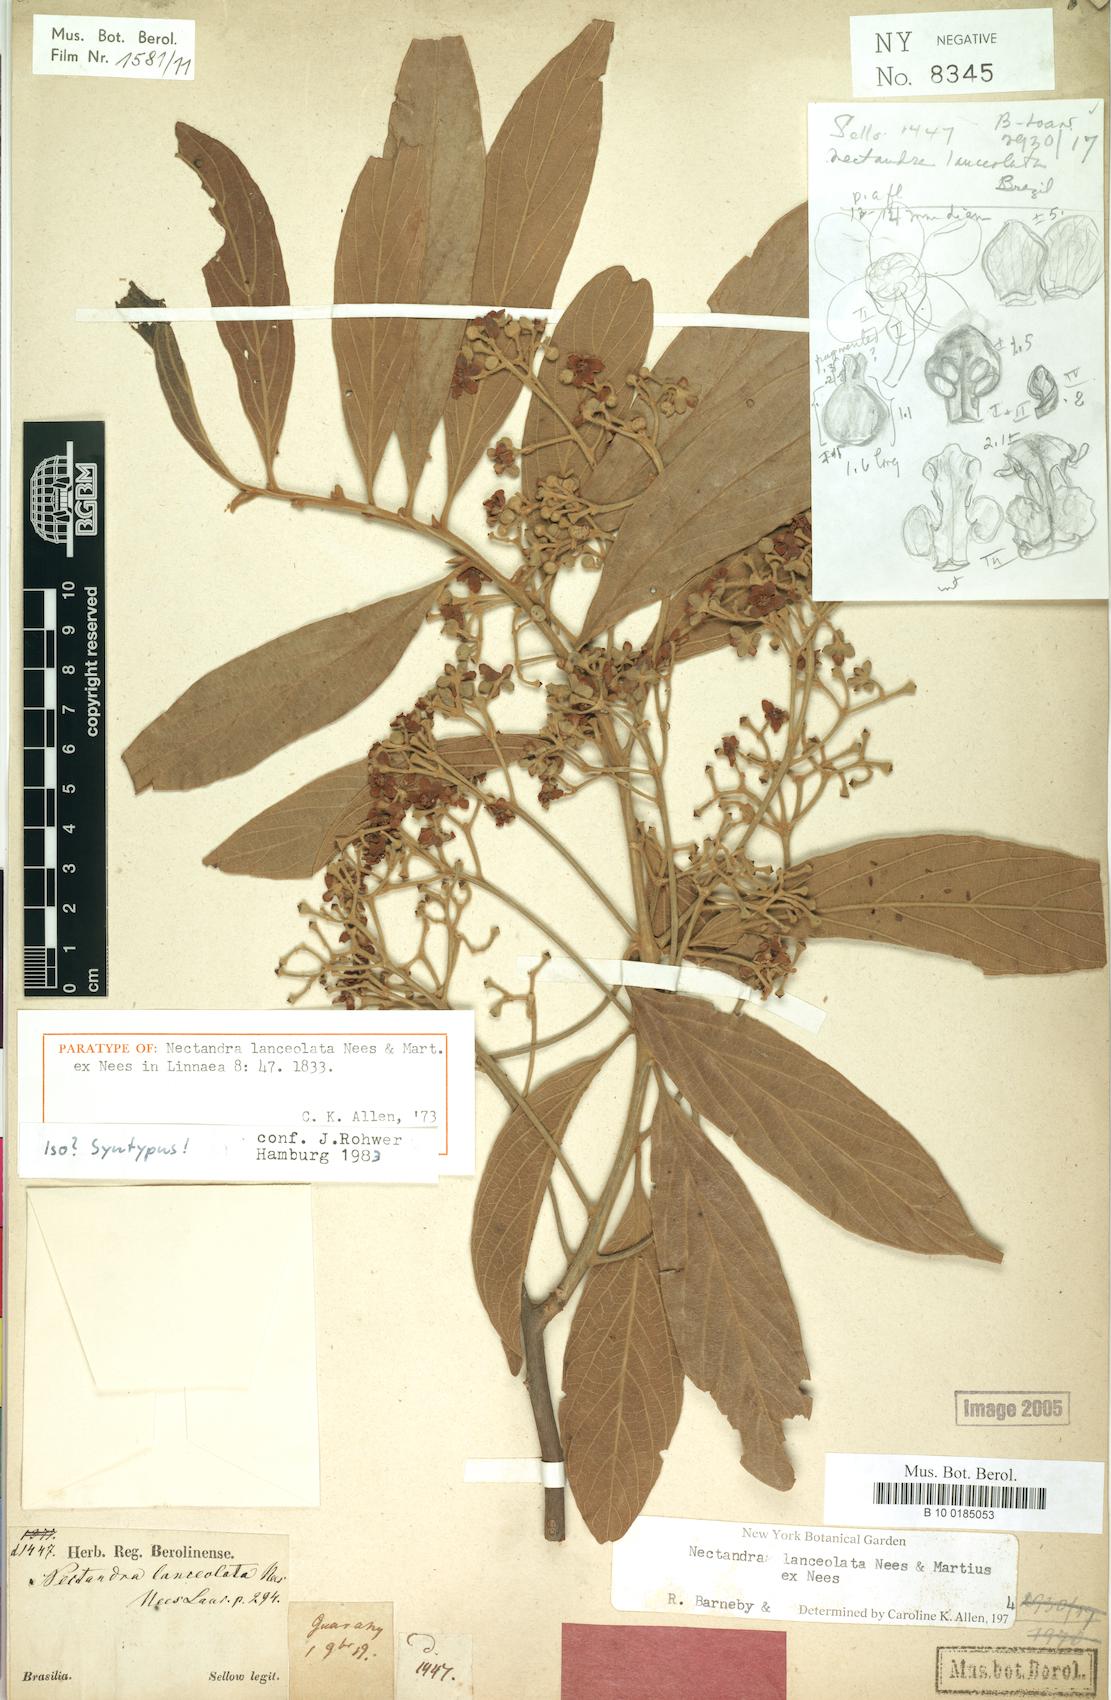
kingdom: Plantae
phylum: Tracheophyta
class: Magnoliopsida
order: Laurales
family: Lauraceae
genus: Nectandra
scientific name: Nectandra lanceolata
